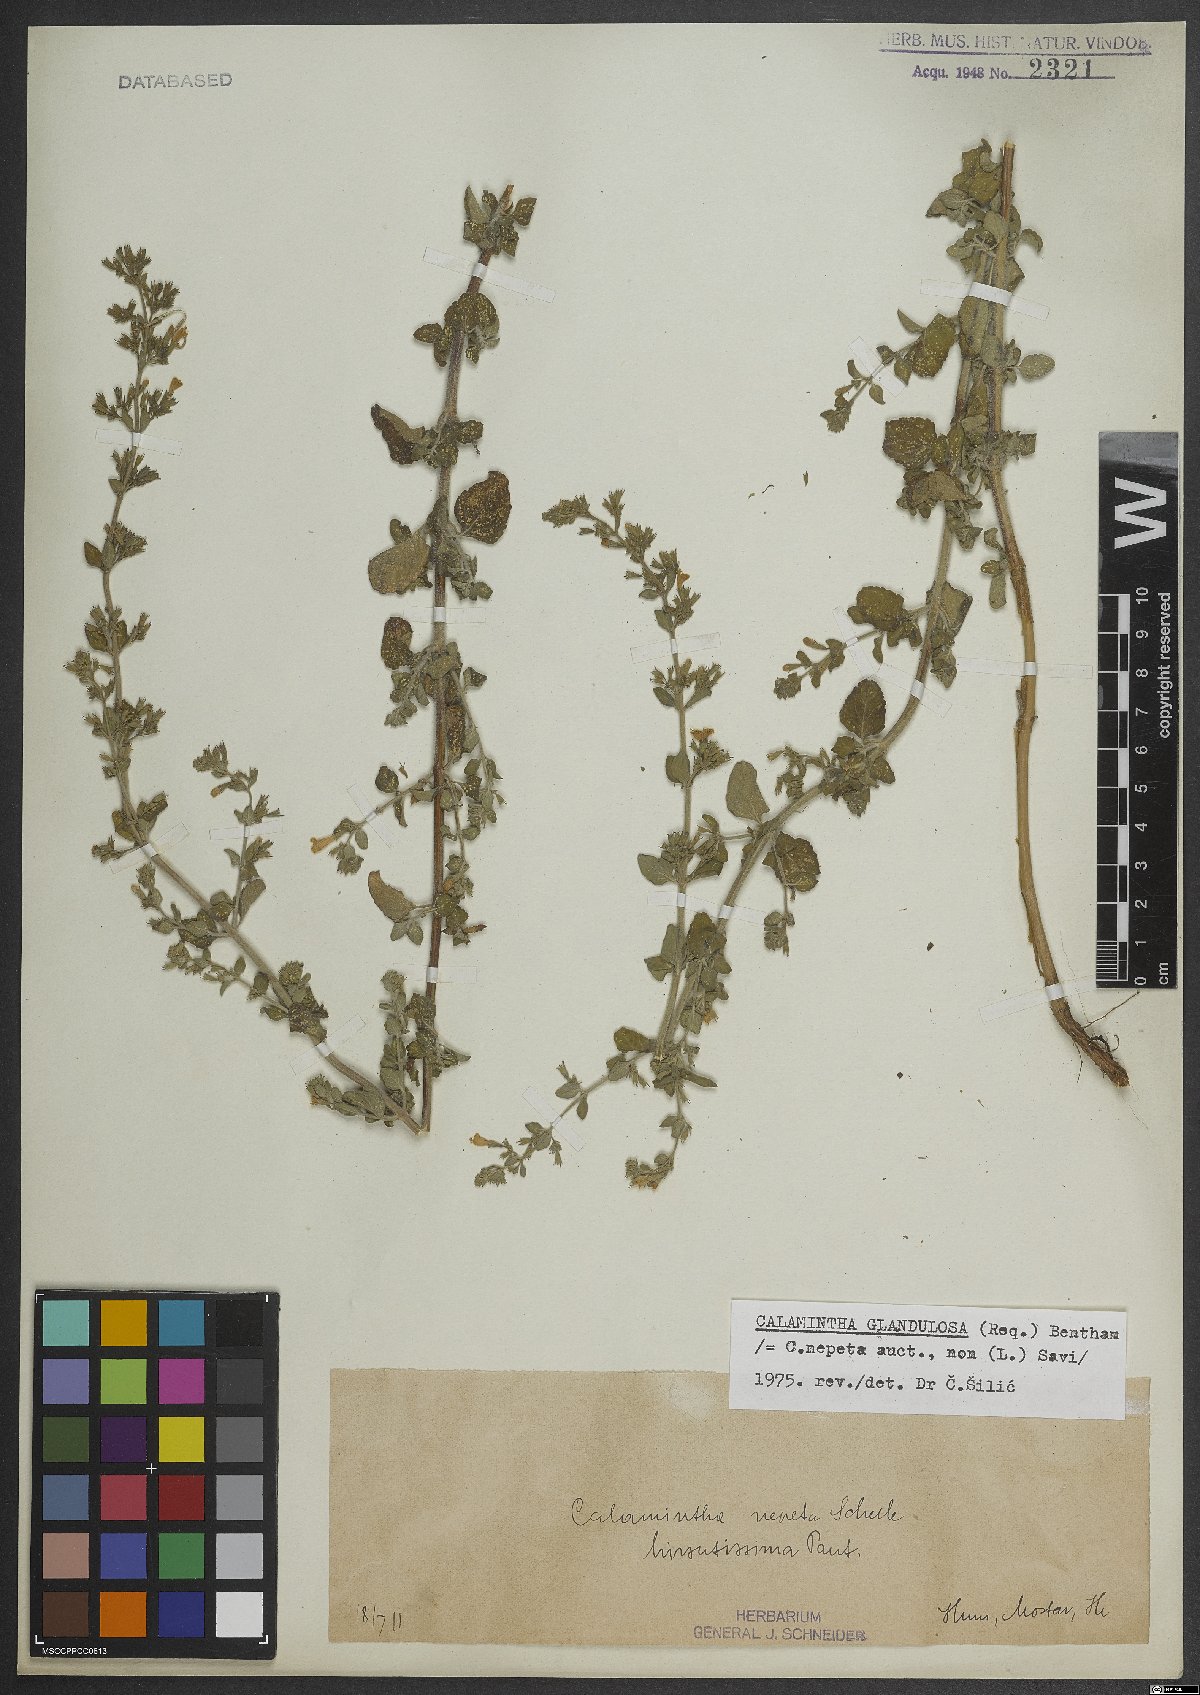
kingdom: Plantae
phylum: Tracheophyta
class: Magnoliopsida
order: Lamiales
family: Lamiaceae
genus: Clinopodium
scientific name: Clinopodium nepeta
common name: Lesser calamint
